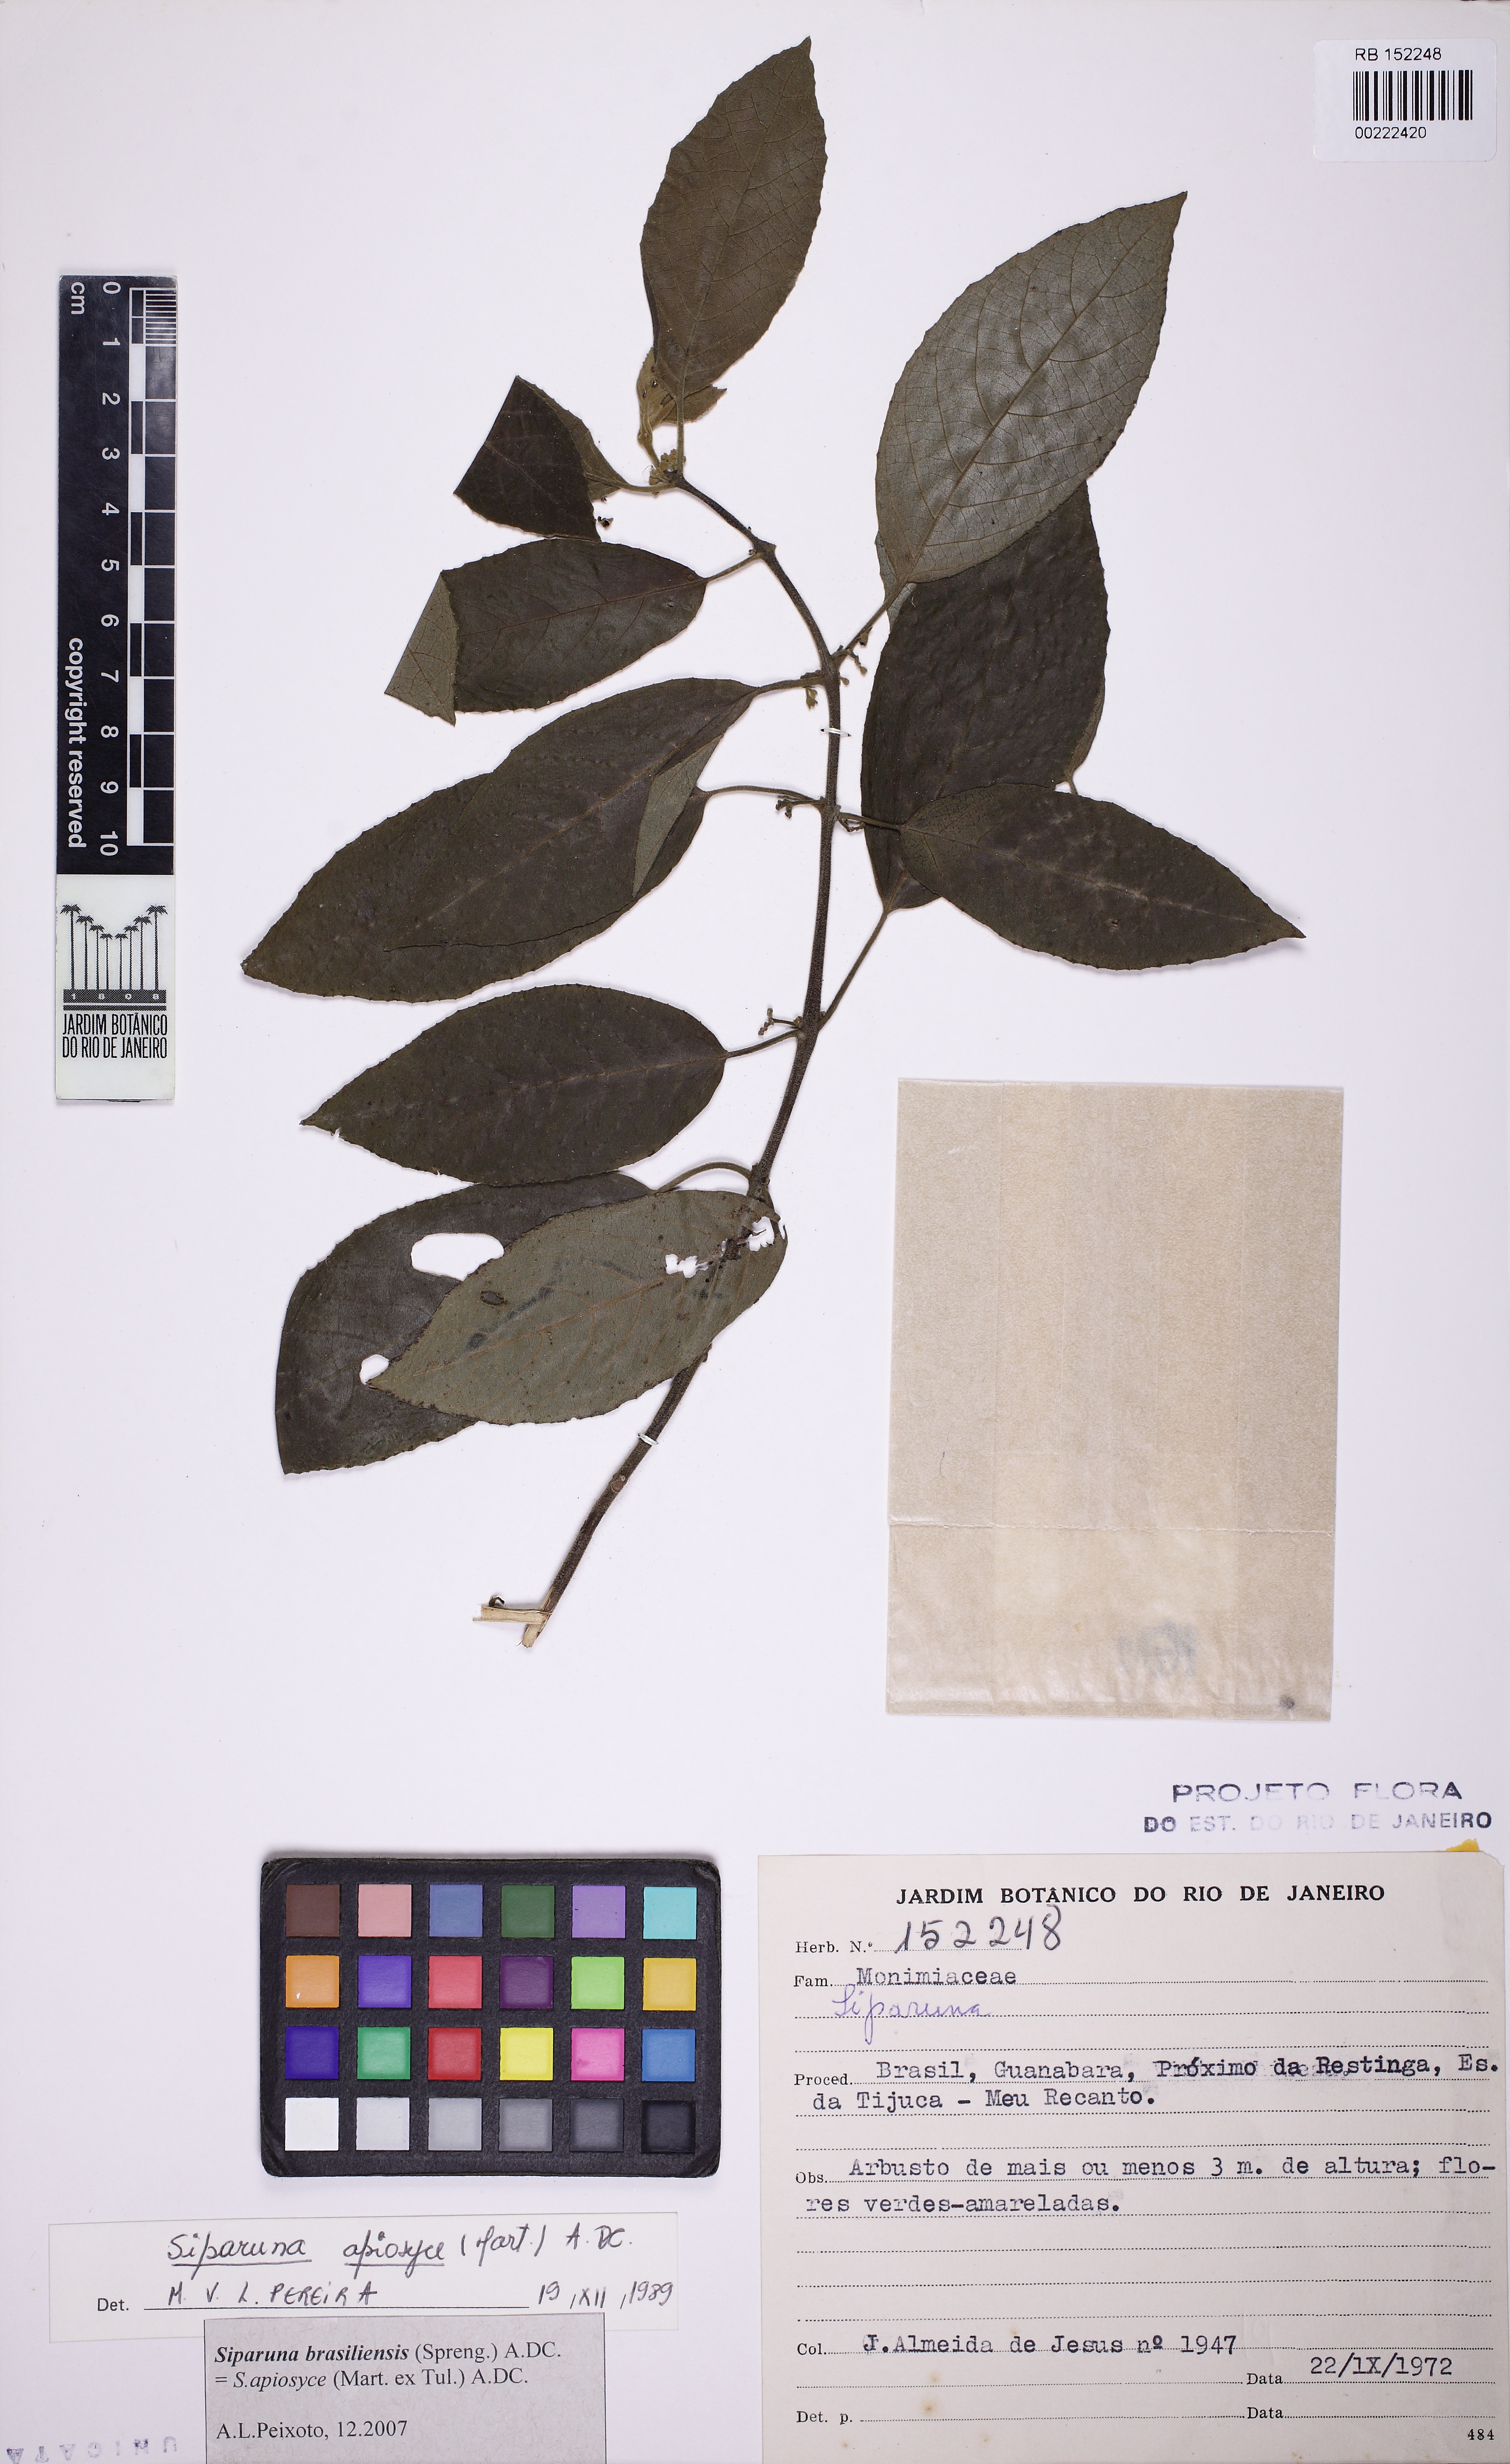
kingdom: Plantae
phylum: Tracheophyta
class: Magnoliopsida
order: Laurales
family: Siparunaceae
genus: Siparuna
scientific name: Siparuna brasiliensis
